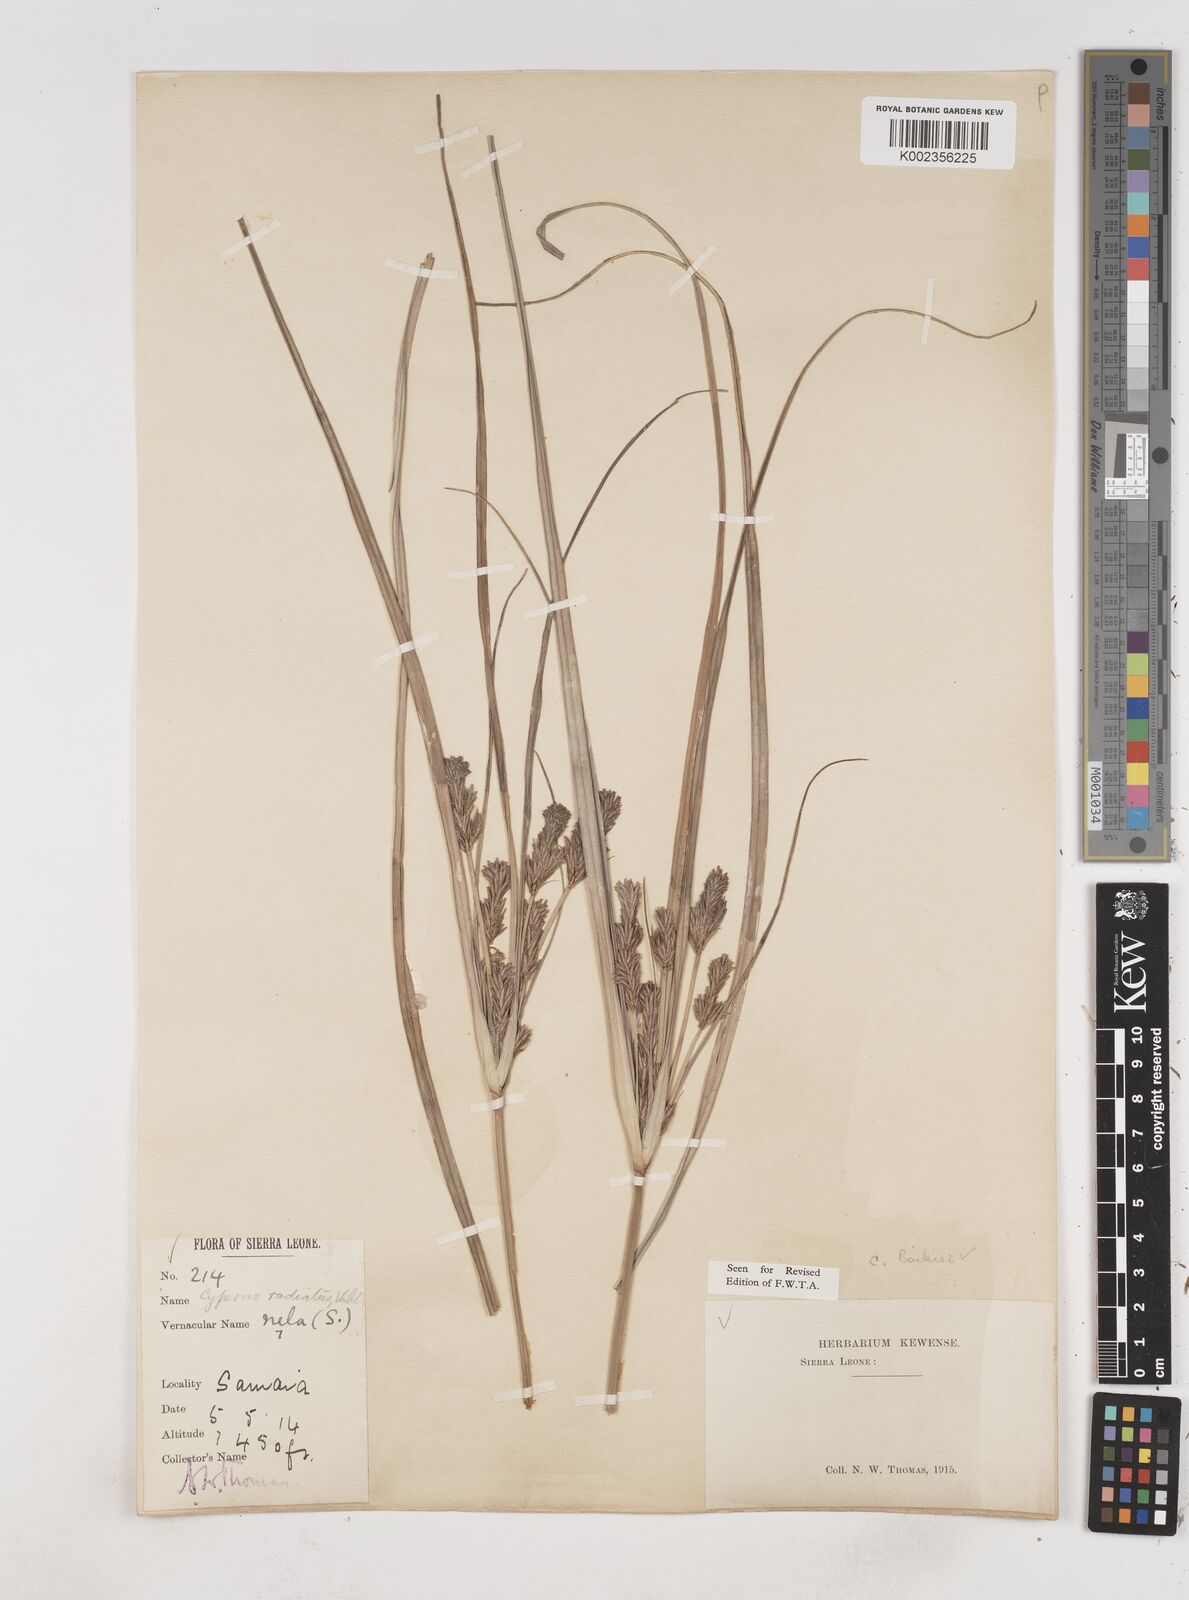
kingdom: Plantae
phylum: Tracheophyta
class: Liliopsida
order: Poales
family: Cyperaceae
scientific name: Cyperaceae
